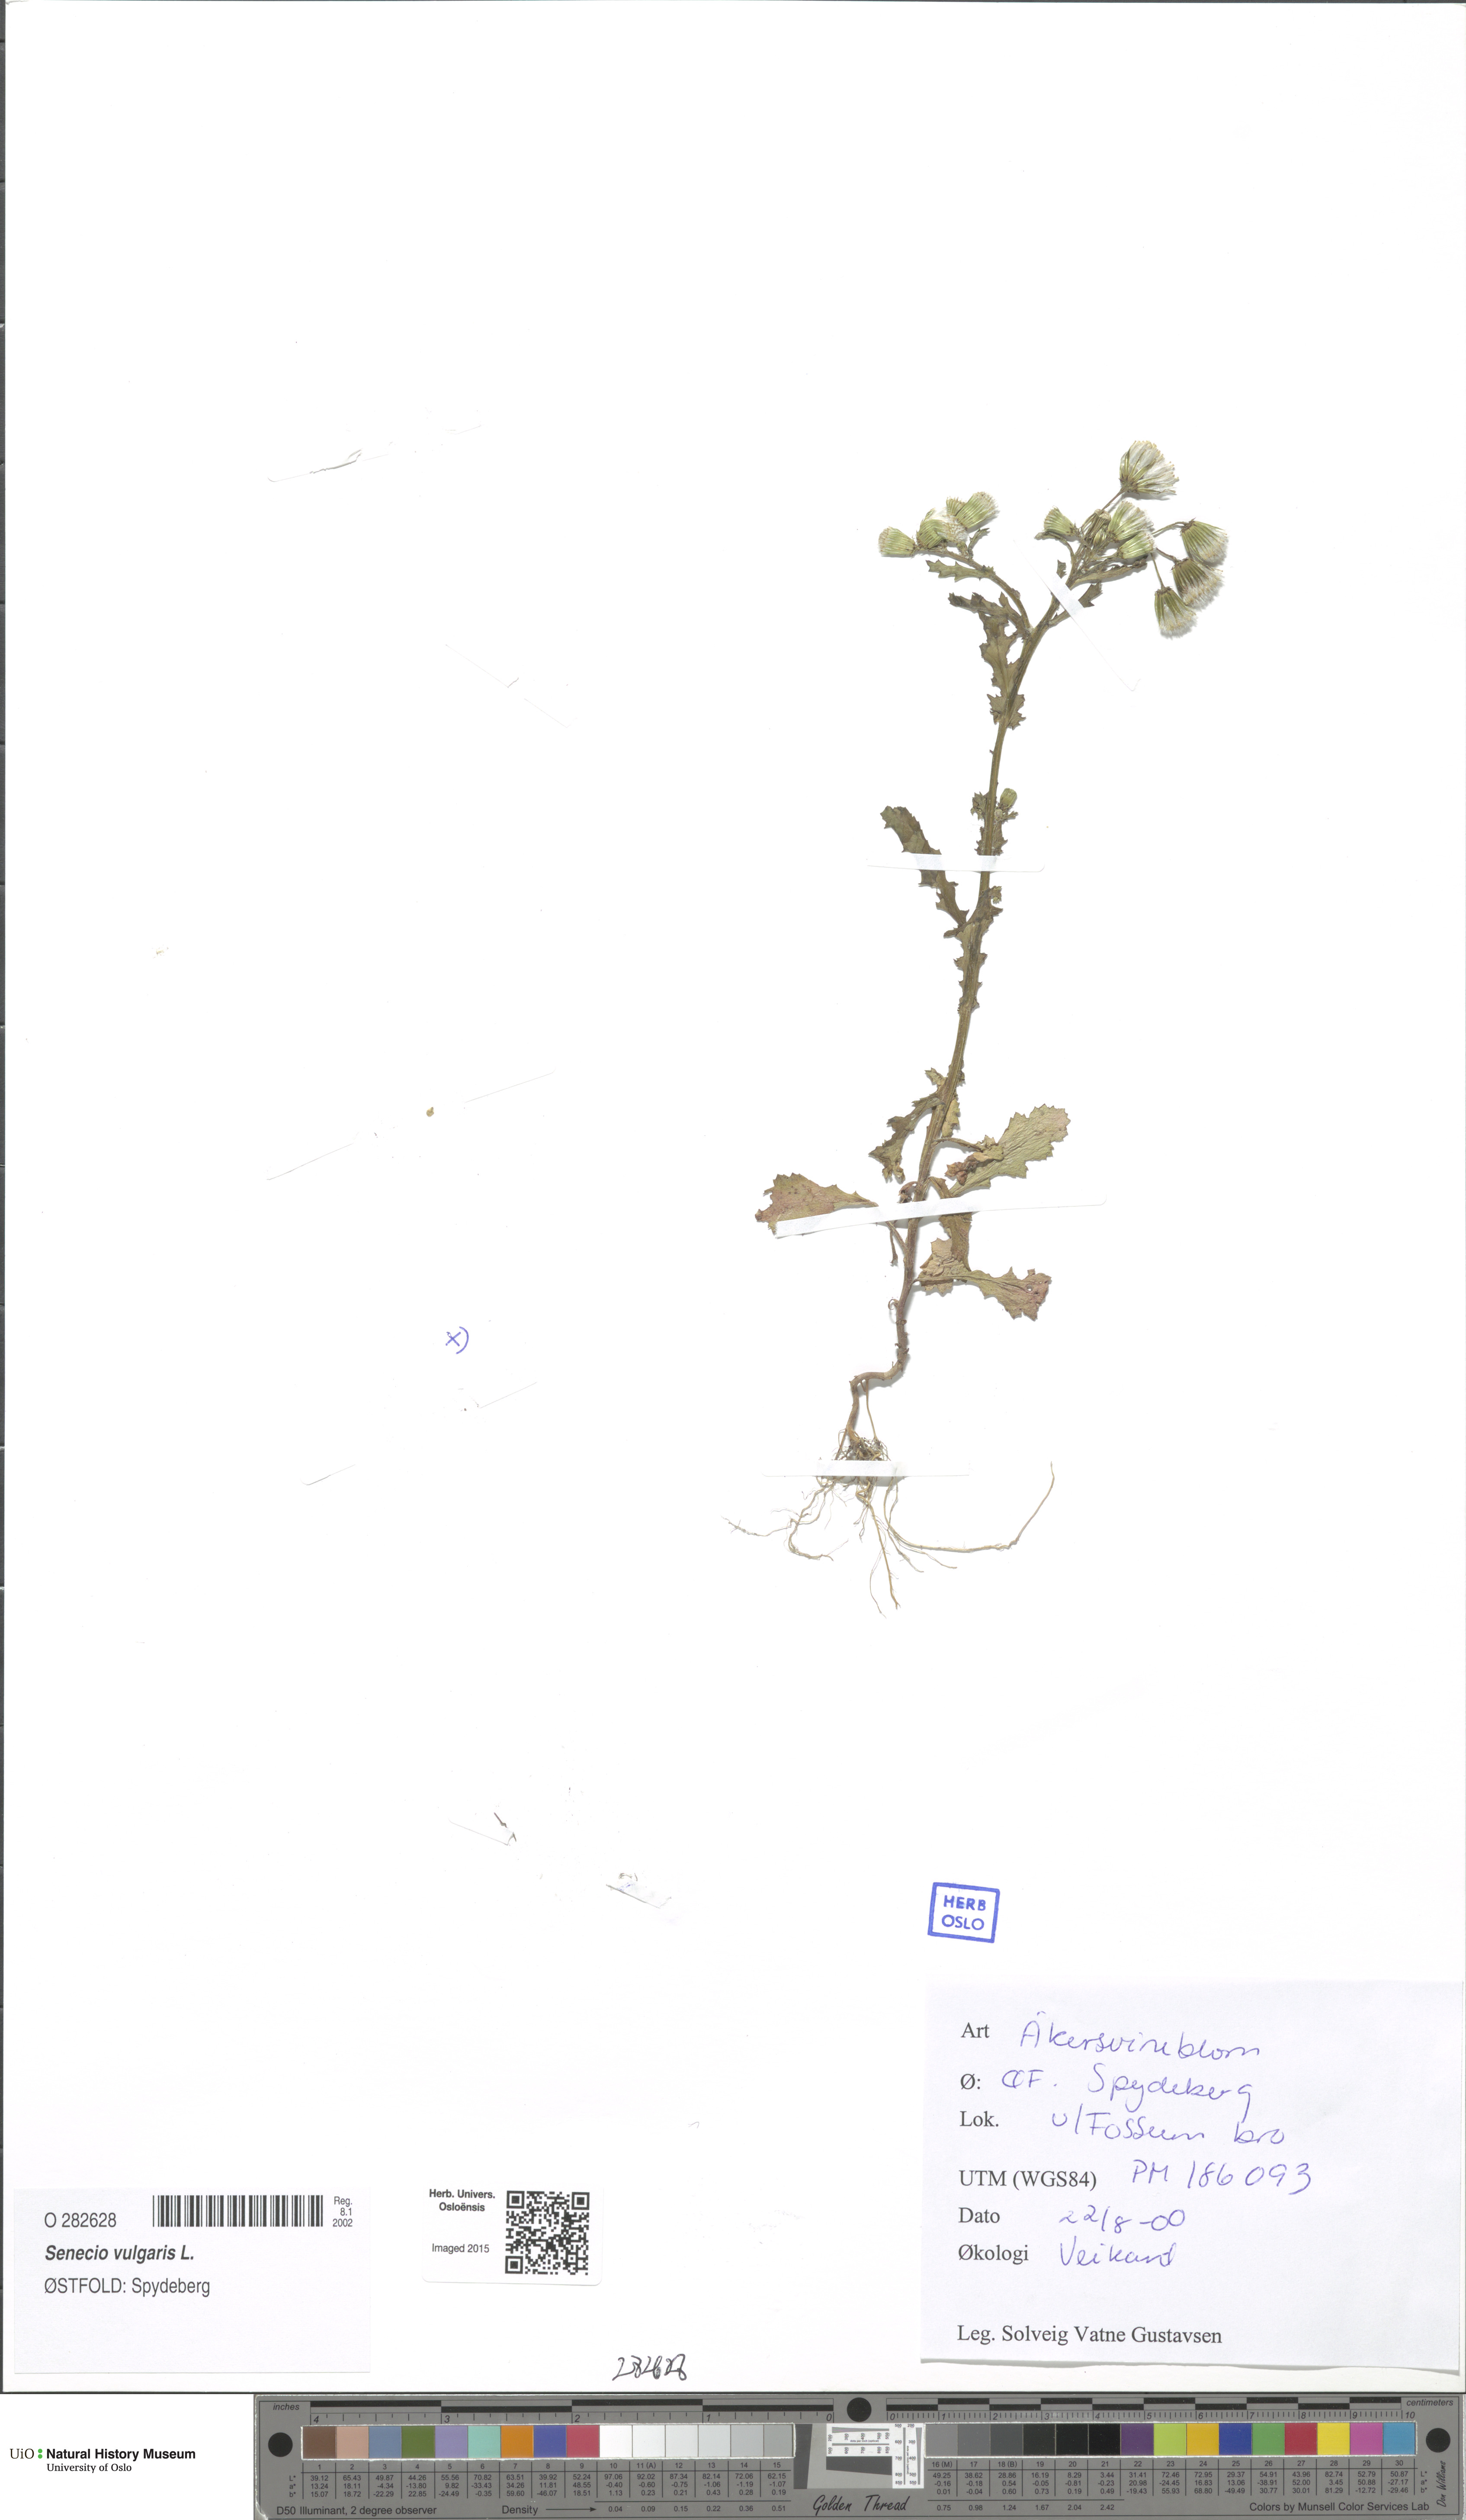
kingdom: Plantae
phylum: Tracheophyta
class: Magnoliopsida
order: Asterales
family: Asteraceae
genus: Senecio
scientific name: Senecio vulgaris
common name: Old-man-in-the-spring
